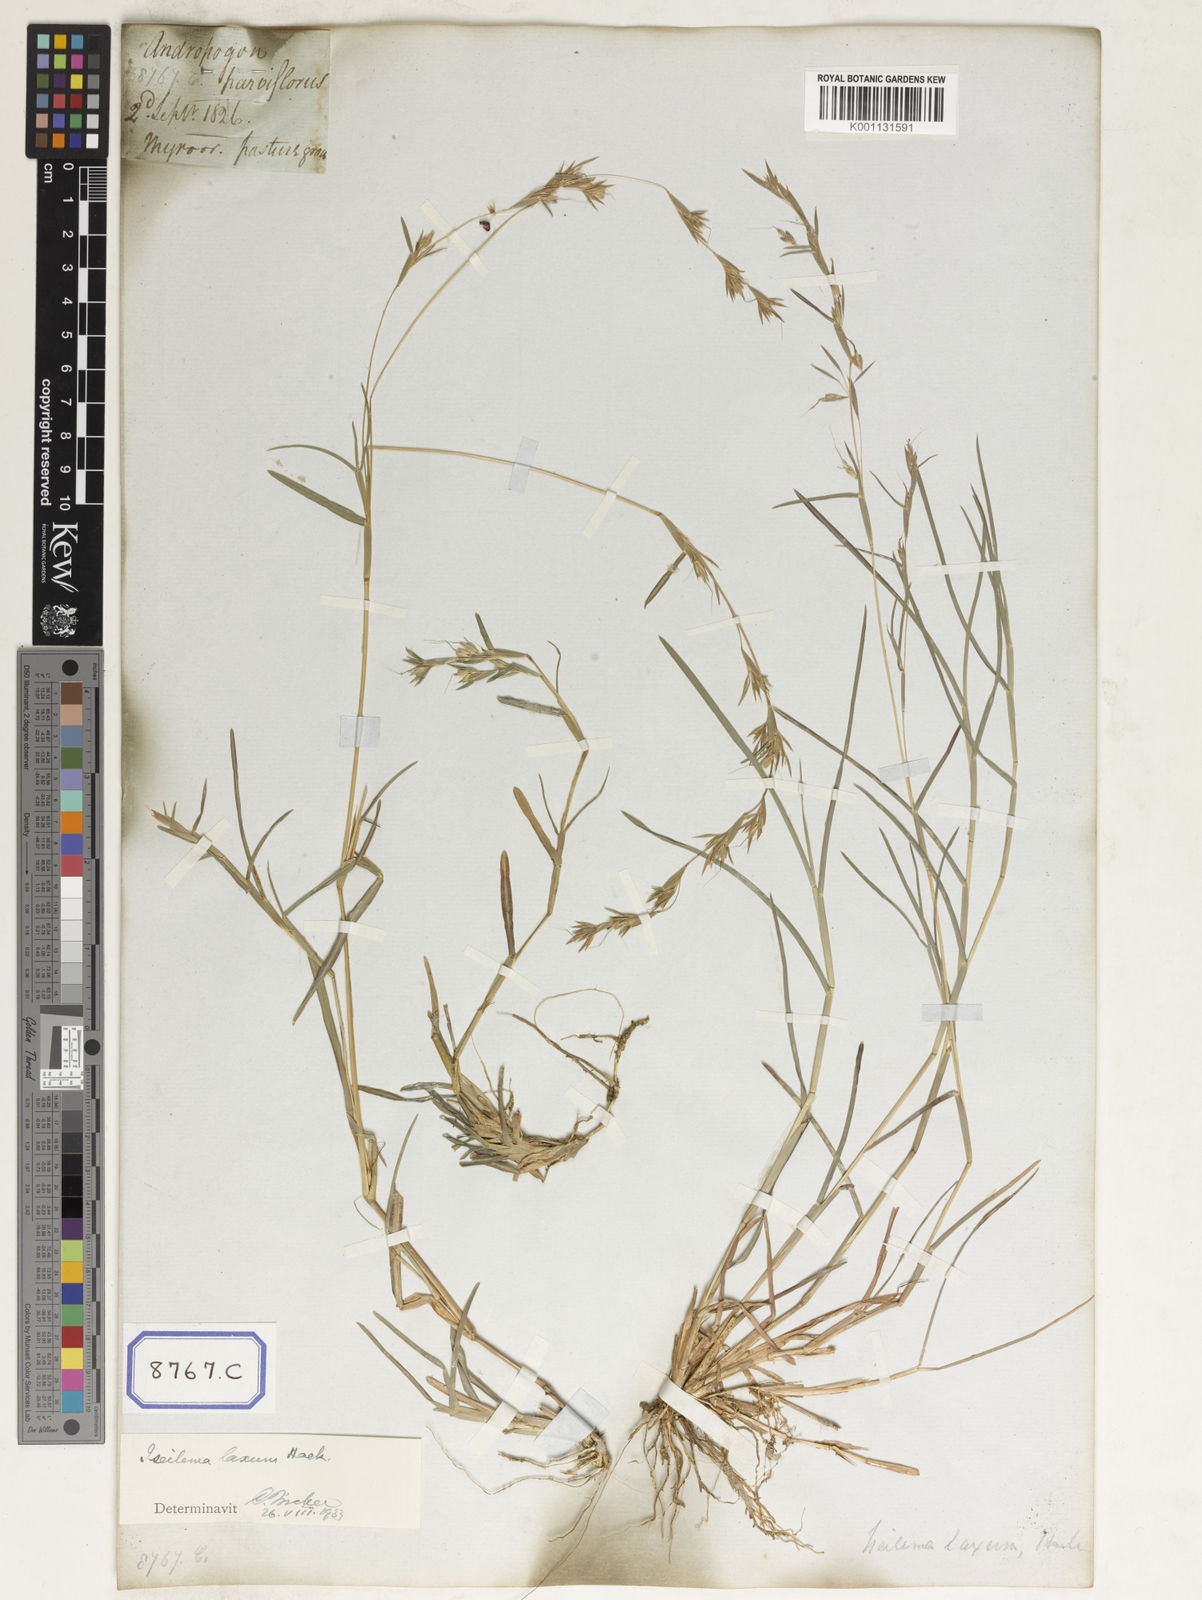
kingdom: Plantae
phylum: Tracheophyta
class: Liliopsida
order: Poales
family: Poaceae
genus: Themeda
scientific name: Themeda
